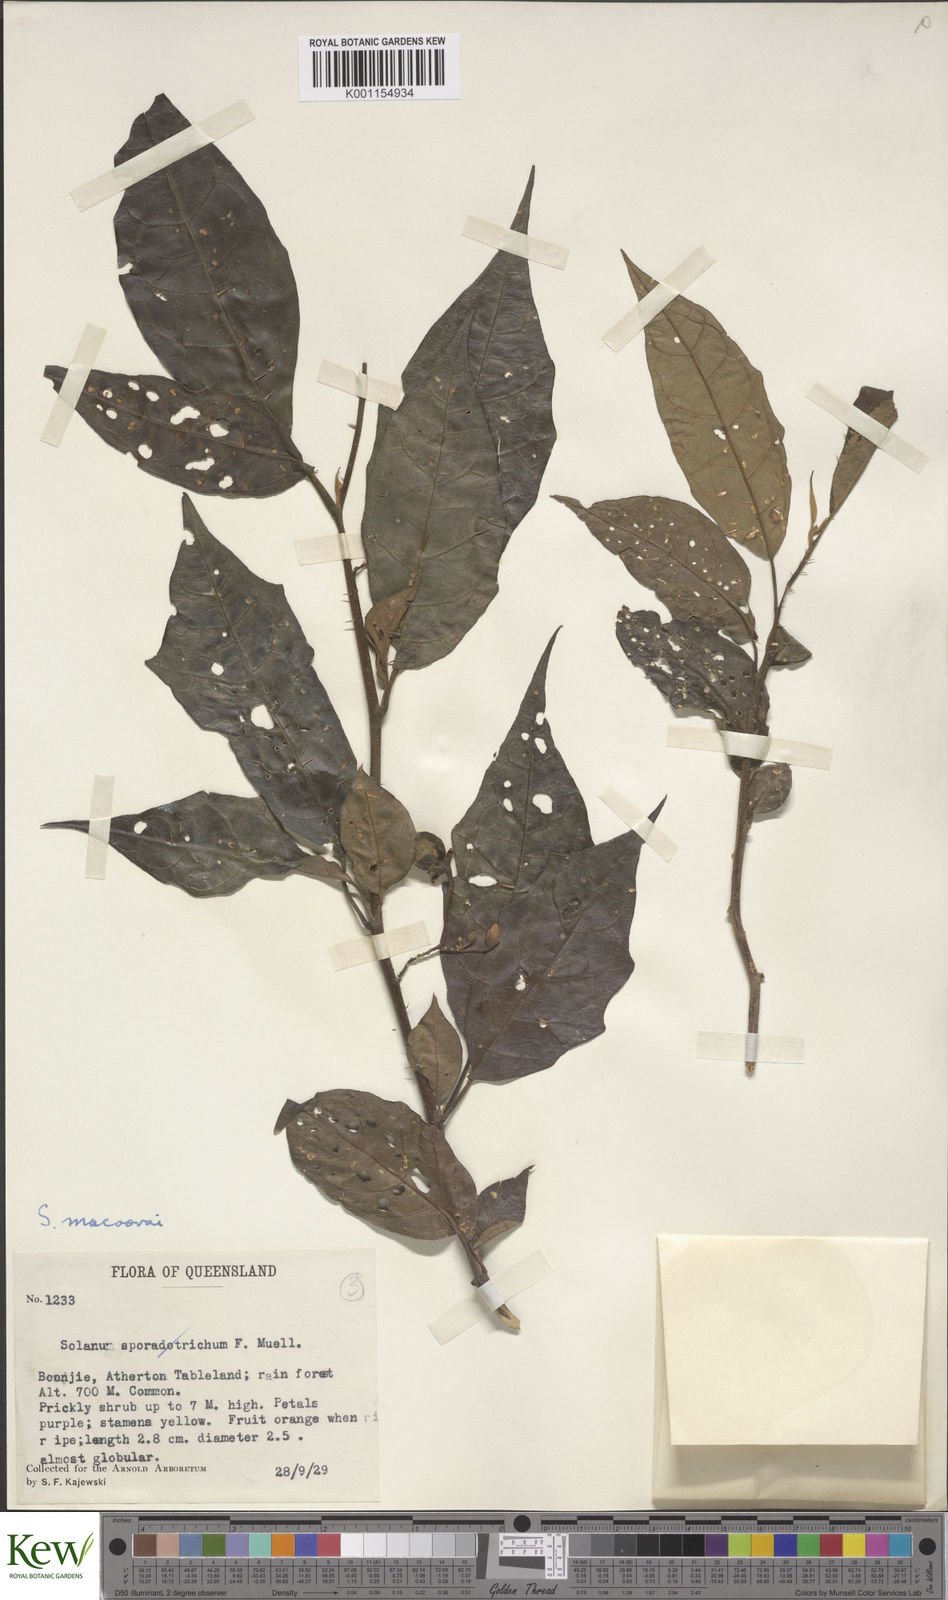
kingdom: Plantae
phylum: Tracheophyta
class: Magnoliopsida
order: Solanales
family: Solanaceae
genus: Solanum
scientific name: Solanum macoorai
